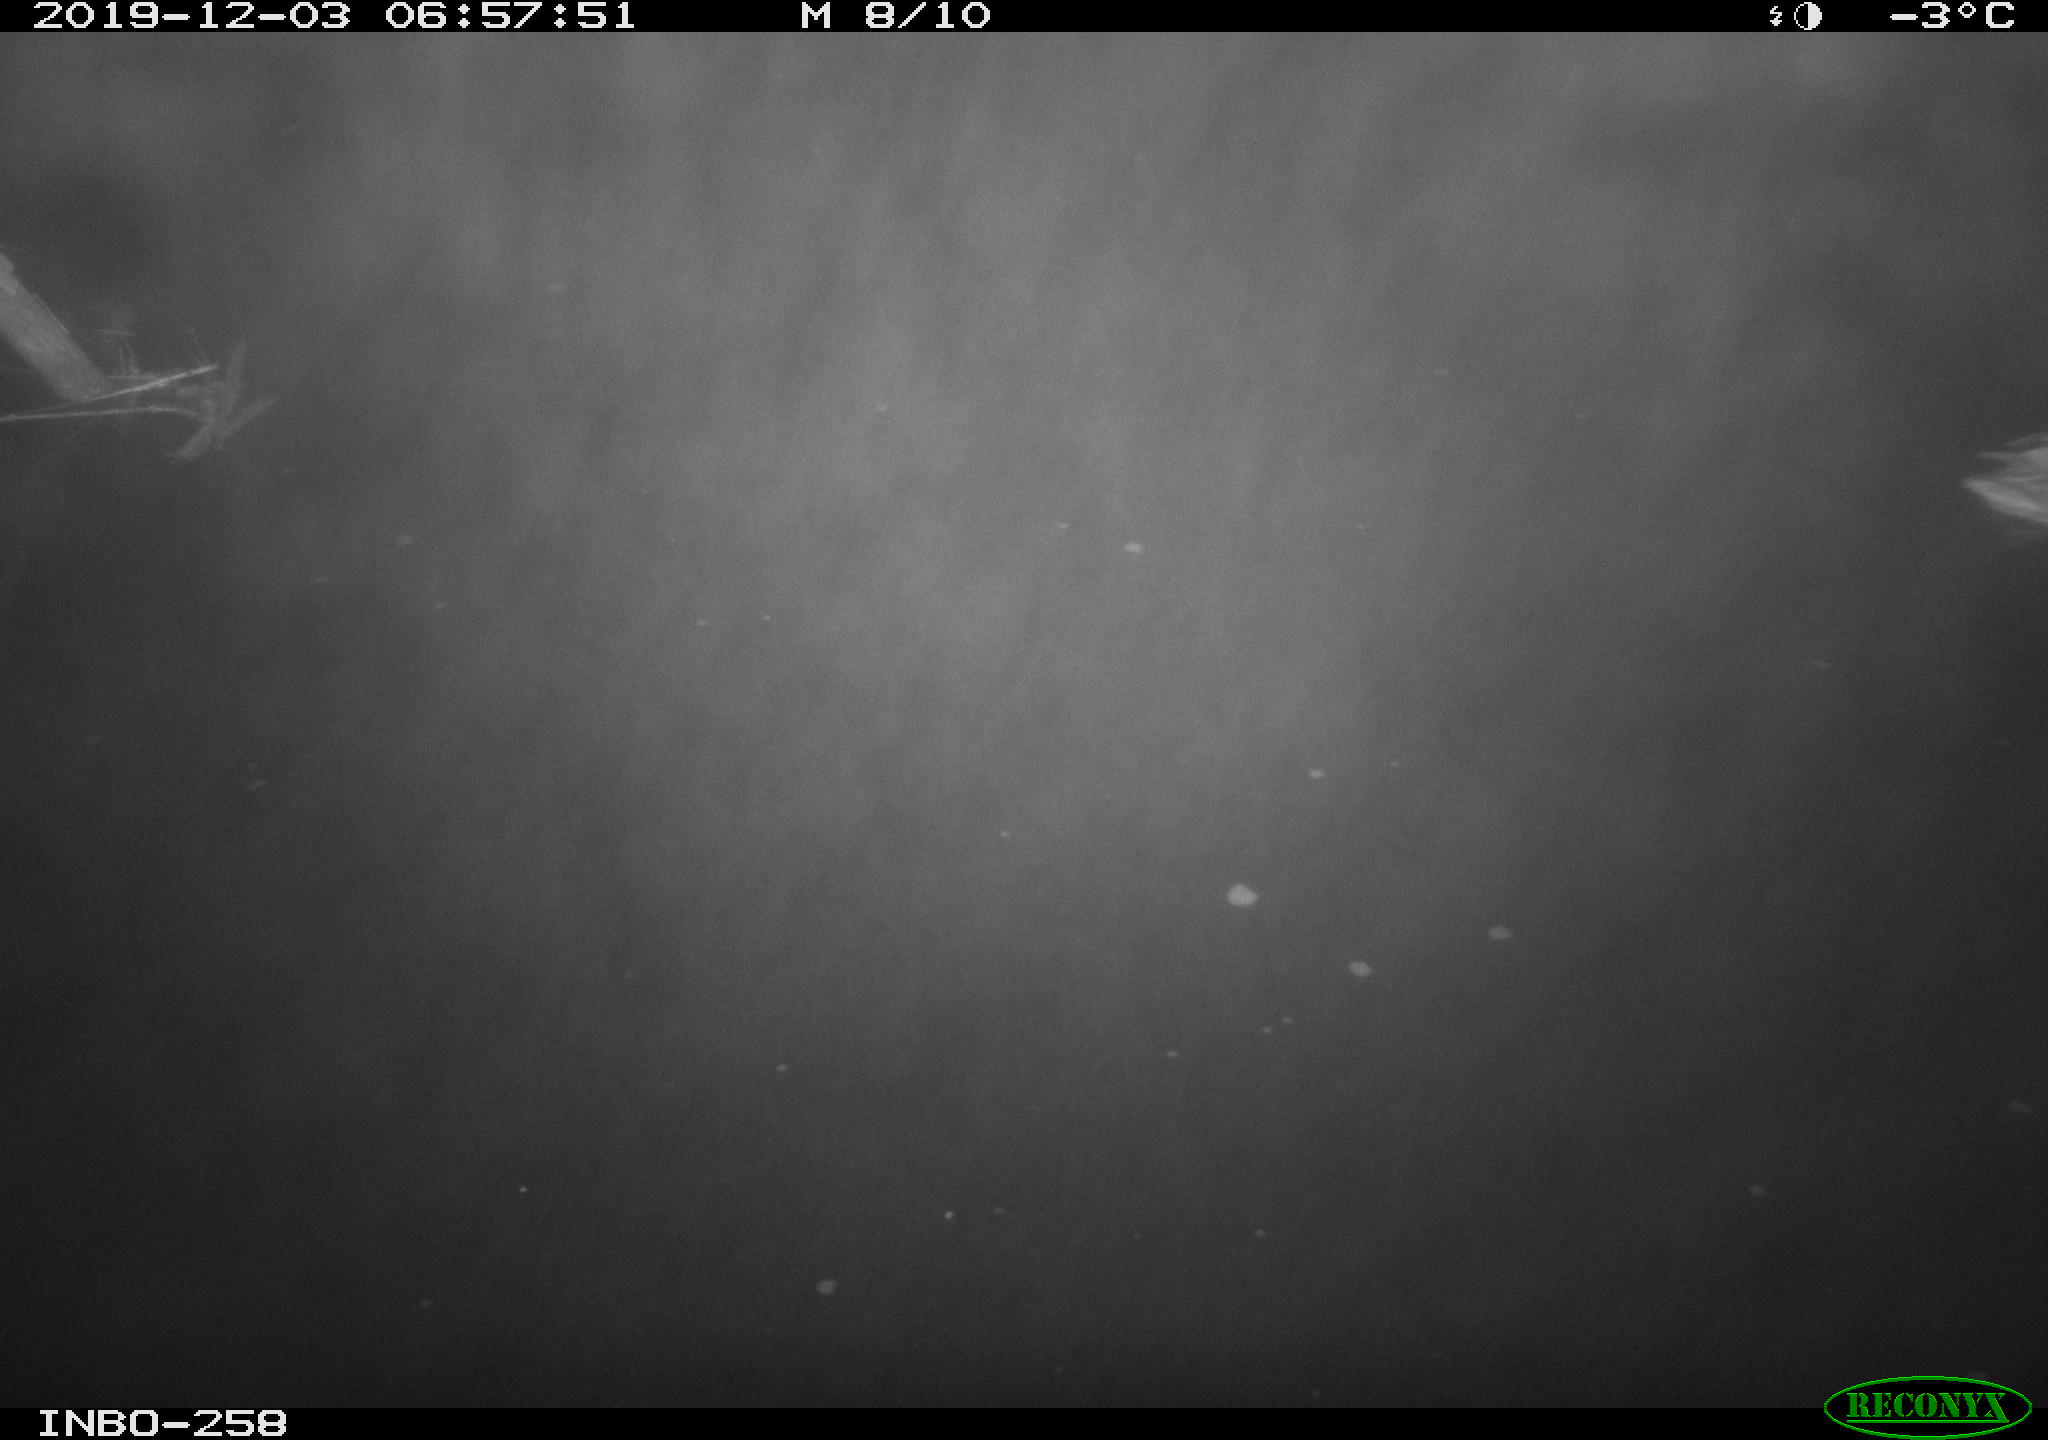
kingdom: Animalia
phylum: Chordata
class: Aves
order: Anseriformes
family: Anatidae
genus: Anas
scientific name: Anas platyrhynchos
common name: Mallard
